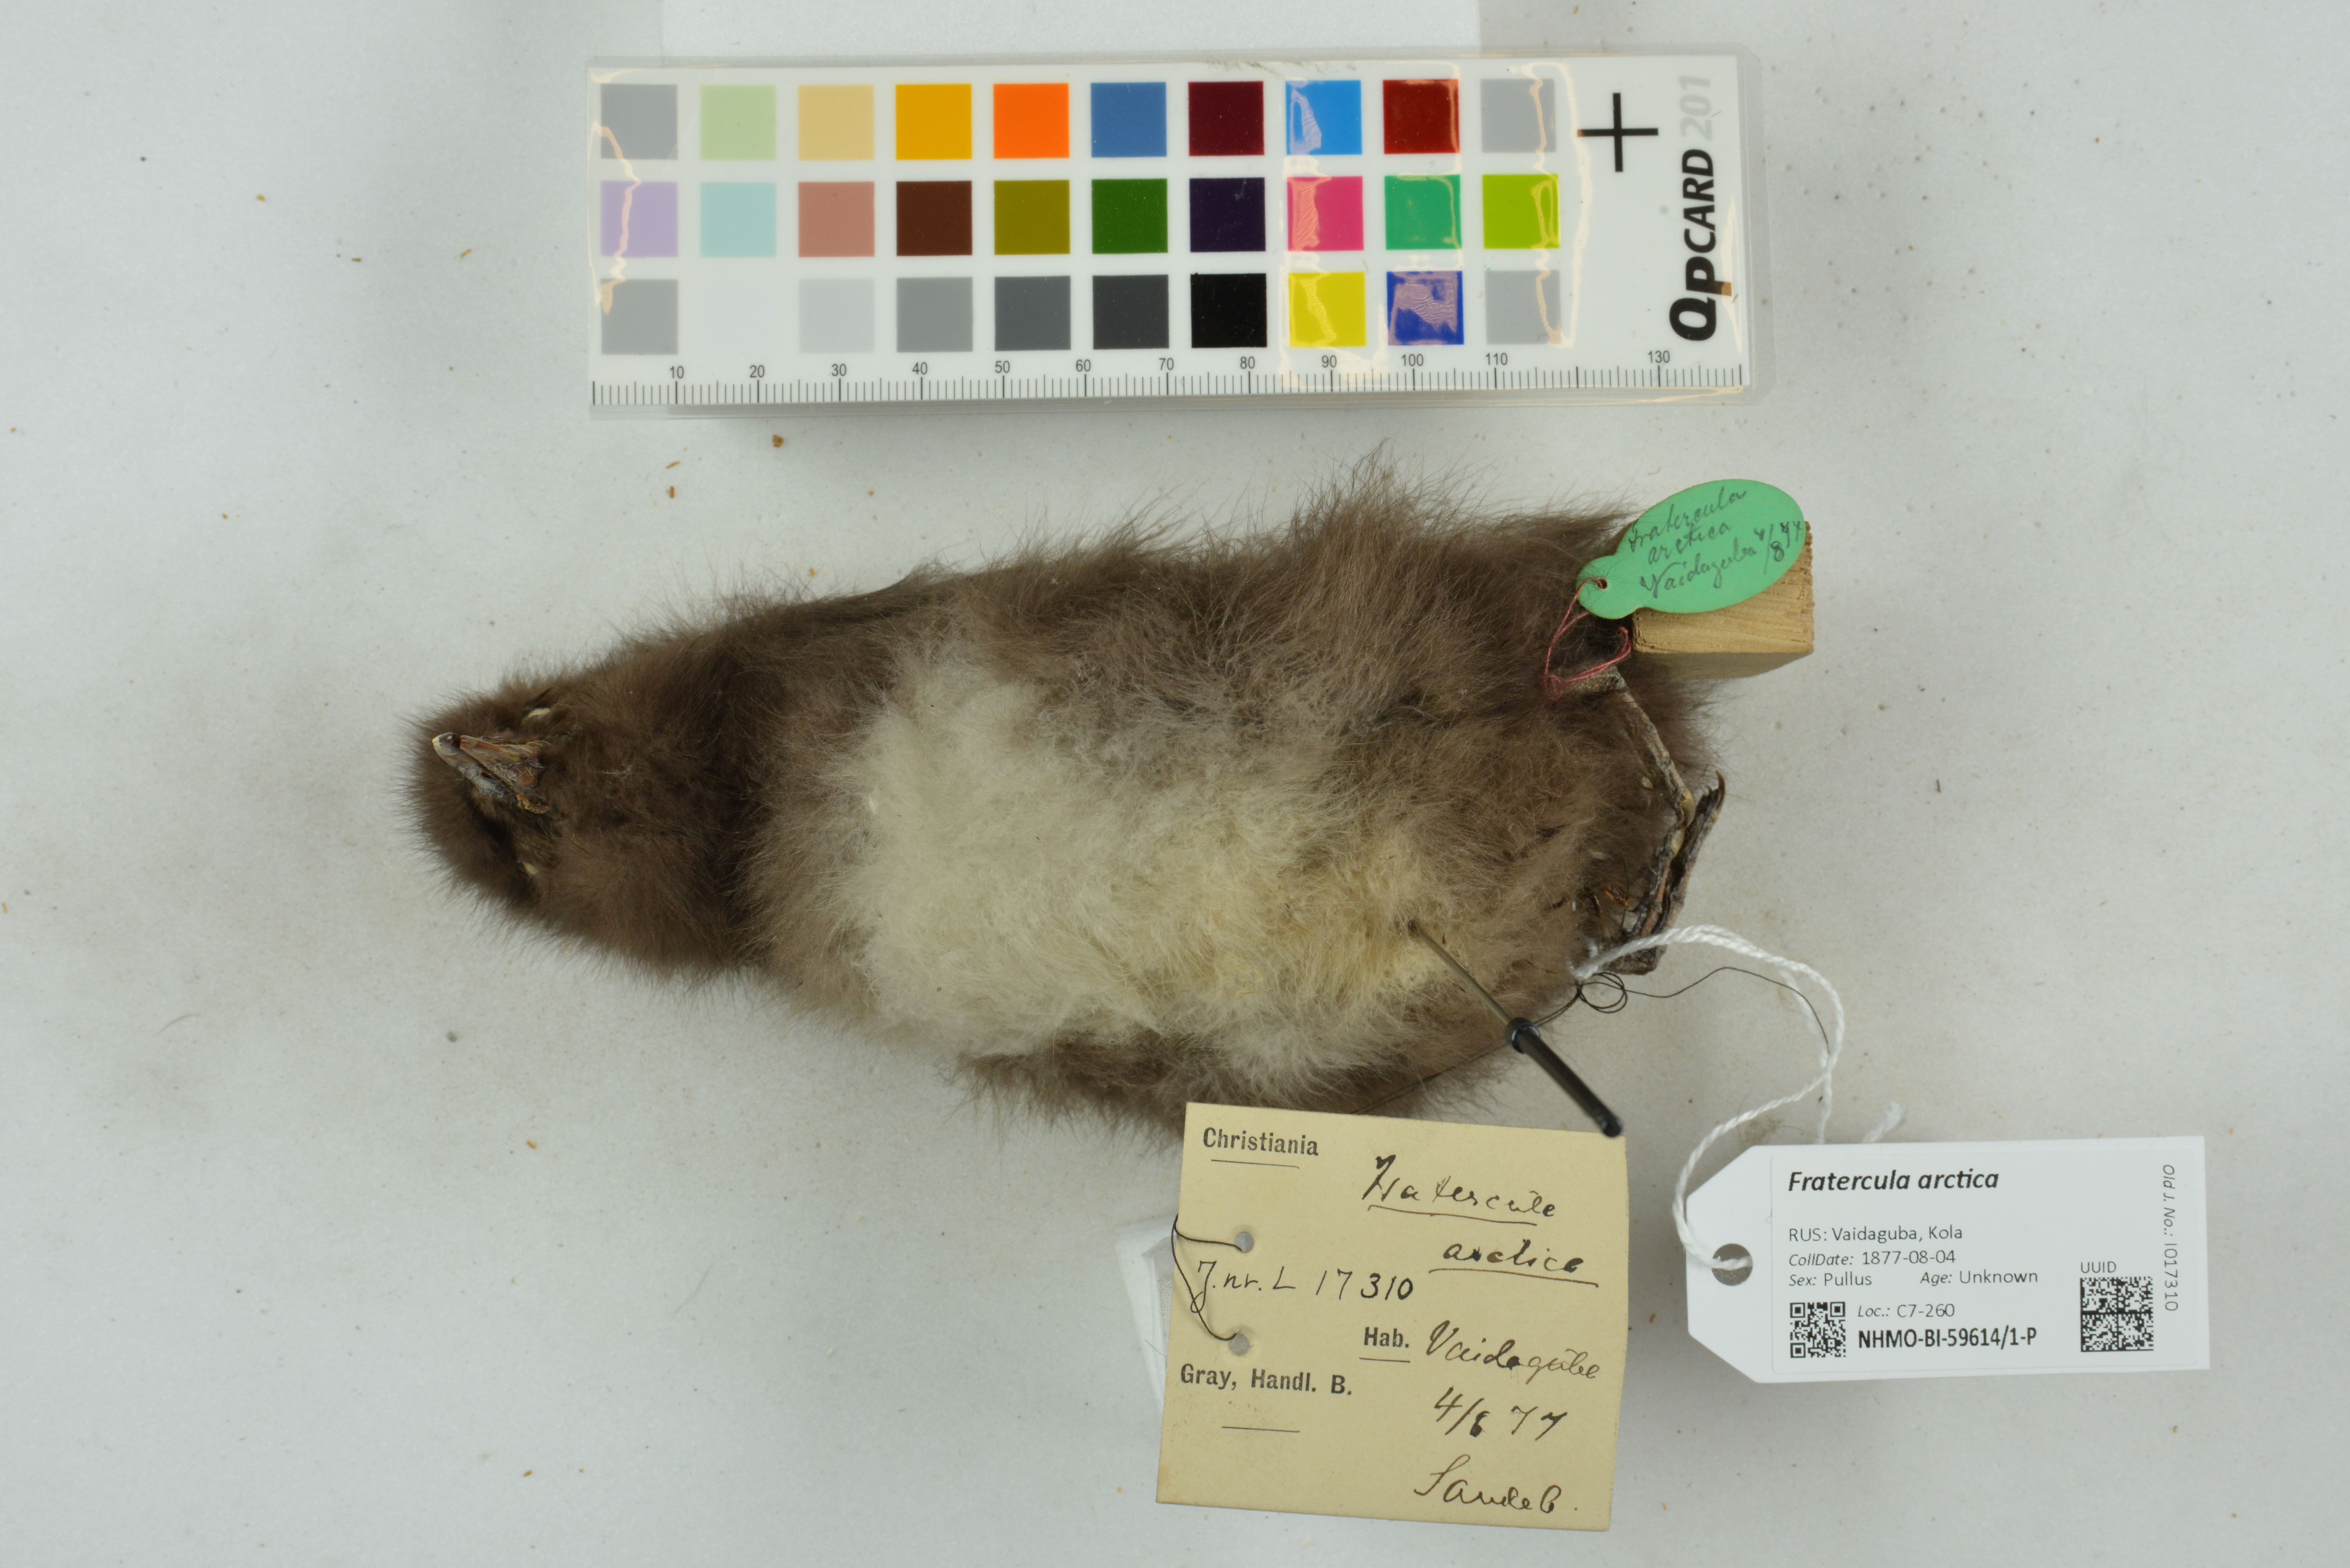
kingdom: Animalia
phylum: Chordata
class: Aves
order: Charadriiformes
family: Alcidae
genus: Fratercula
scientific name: Fratercula arctica
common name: Atlantic puffin
